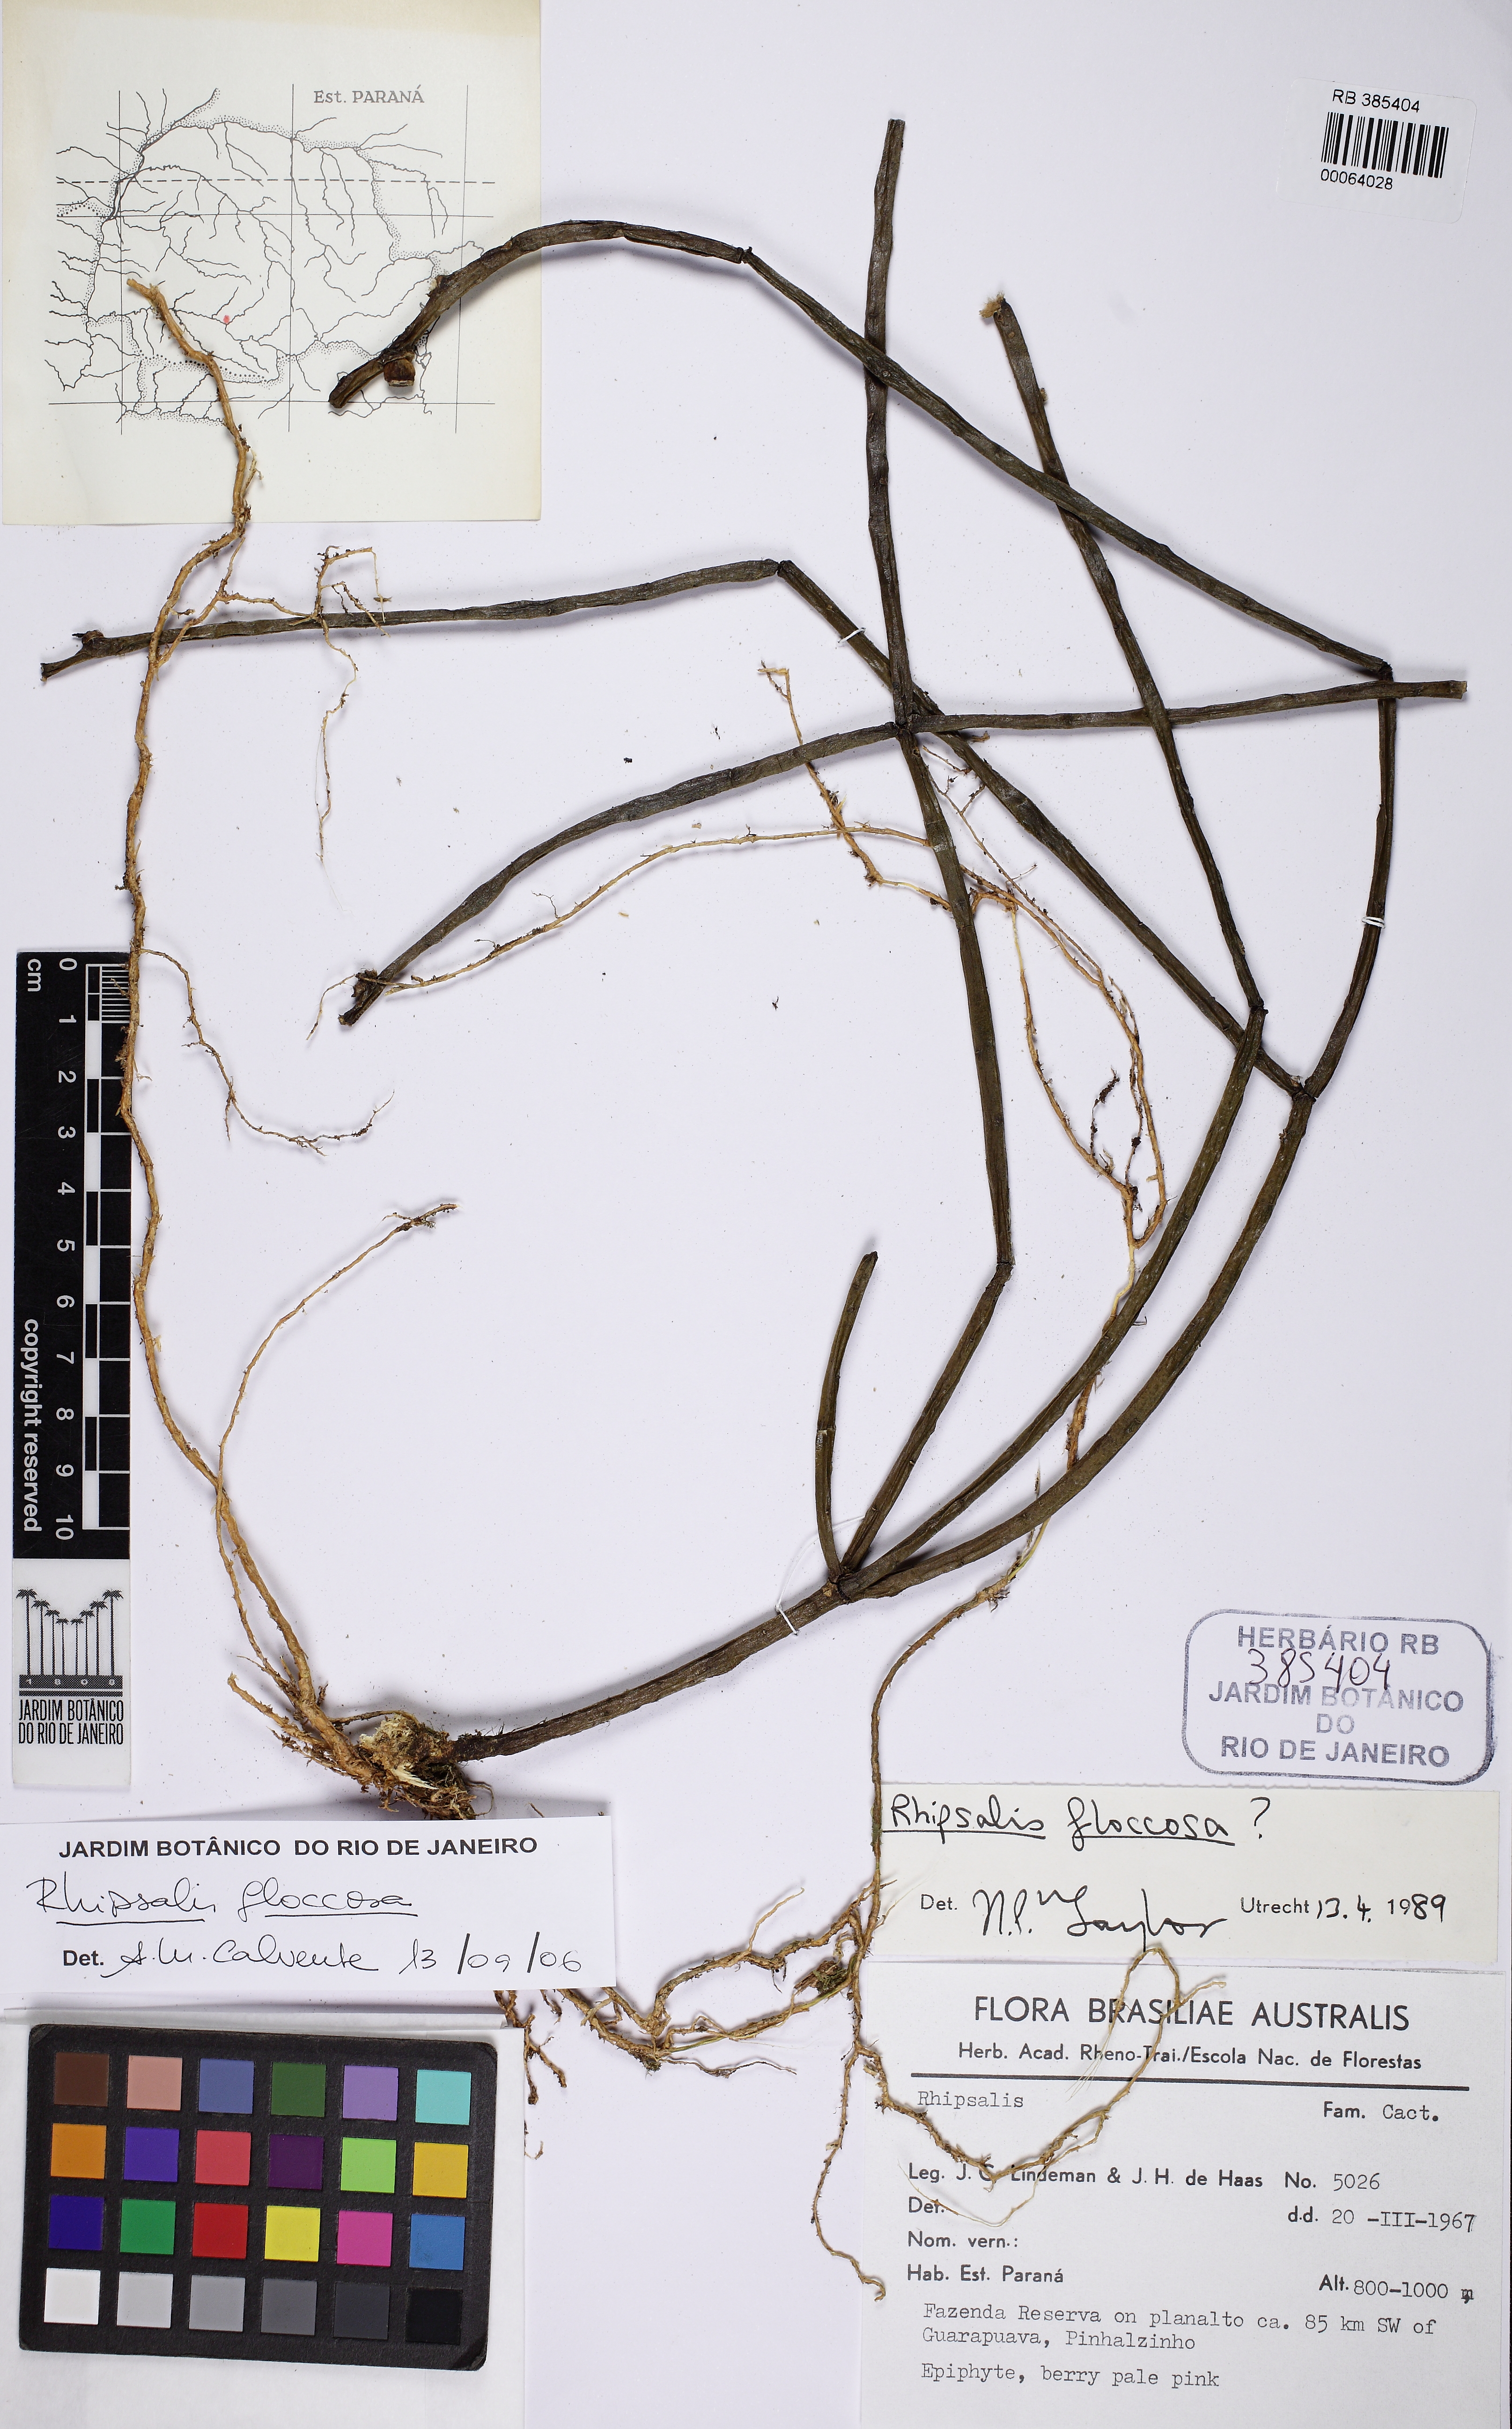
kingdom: Plantae
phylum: Tracheophyta
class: Magnoliopsida
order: Caryophyllales
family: Cactaceae
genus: Rhipsalis
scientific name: Rhipsalis floccosa
